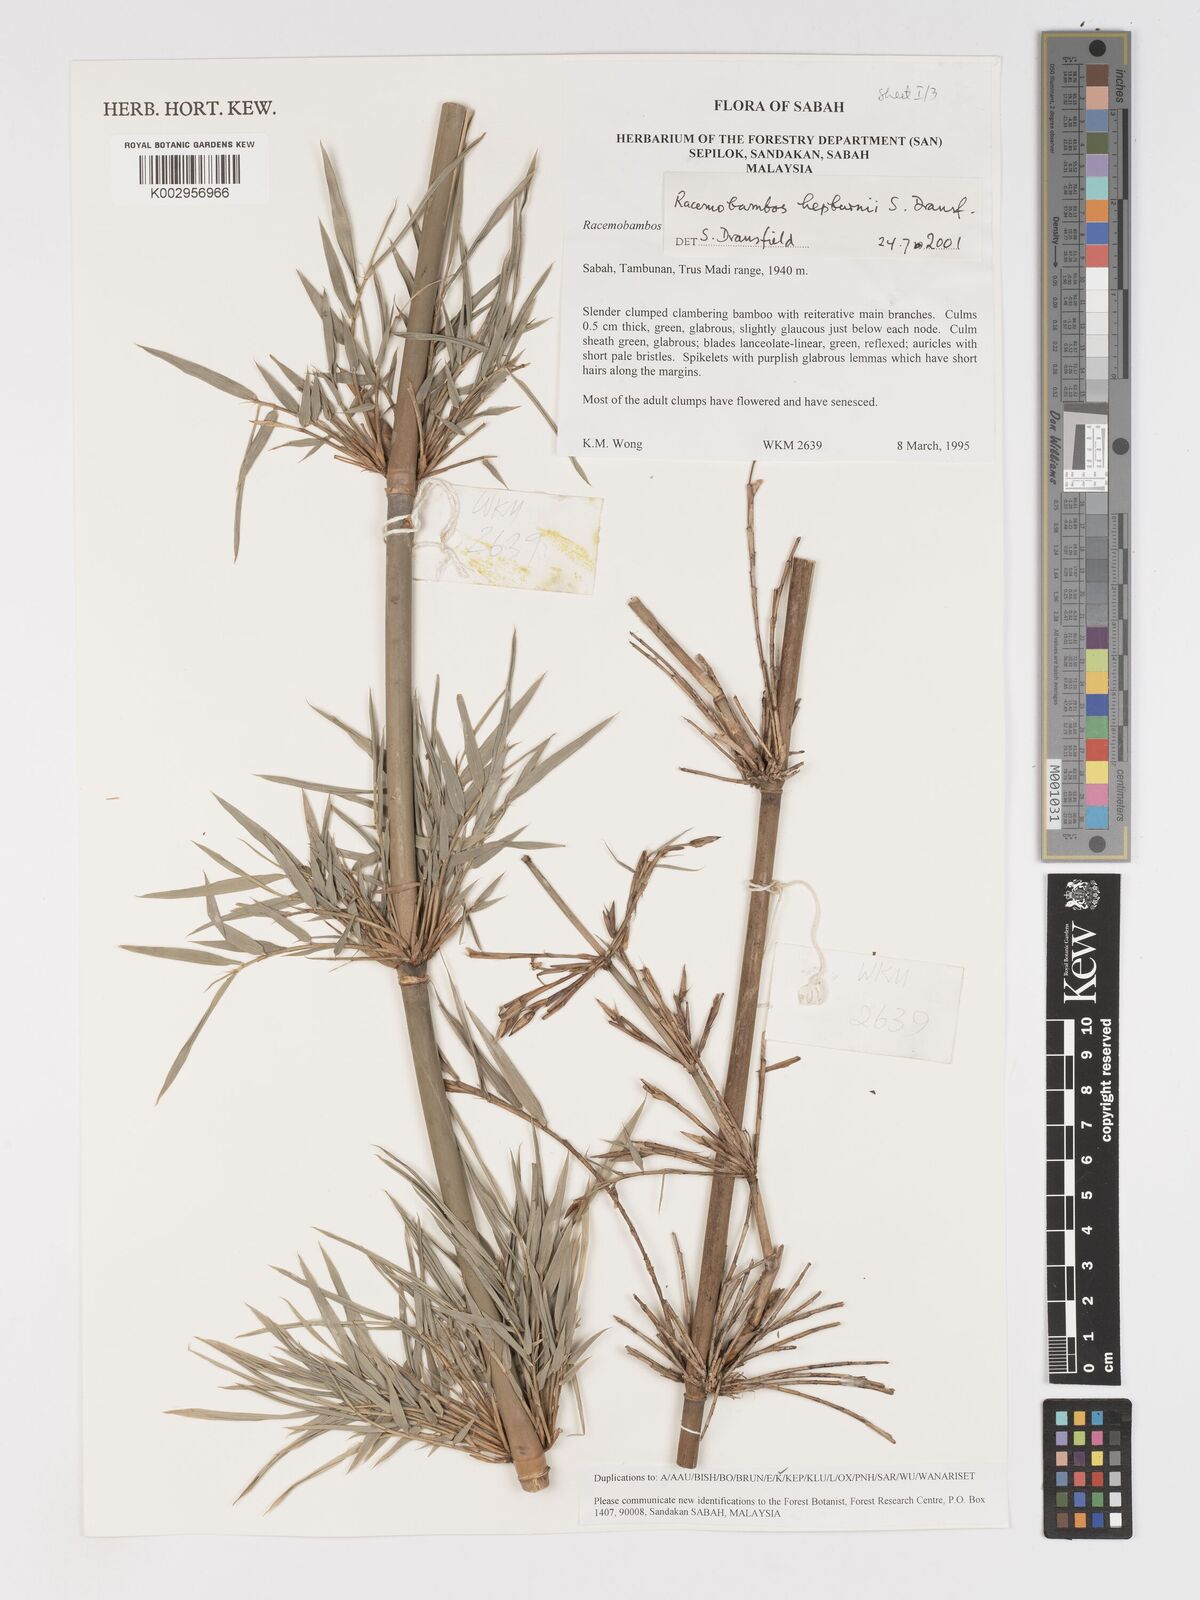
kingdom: Plantae
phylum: Tracheophyta
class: Liliopsida
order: Poales
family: Poaceae
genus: Racemobambos
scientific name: Racemobambos hepburnii
